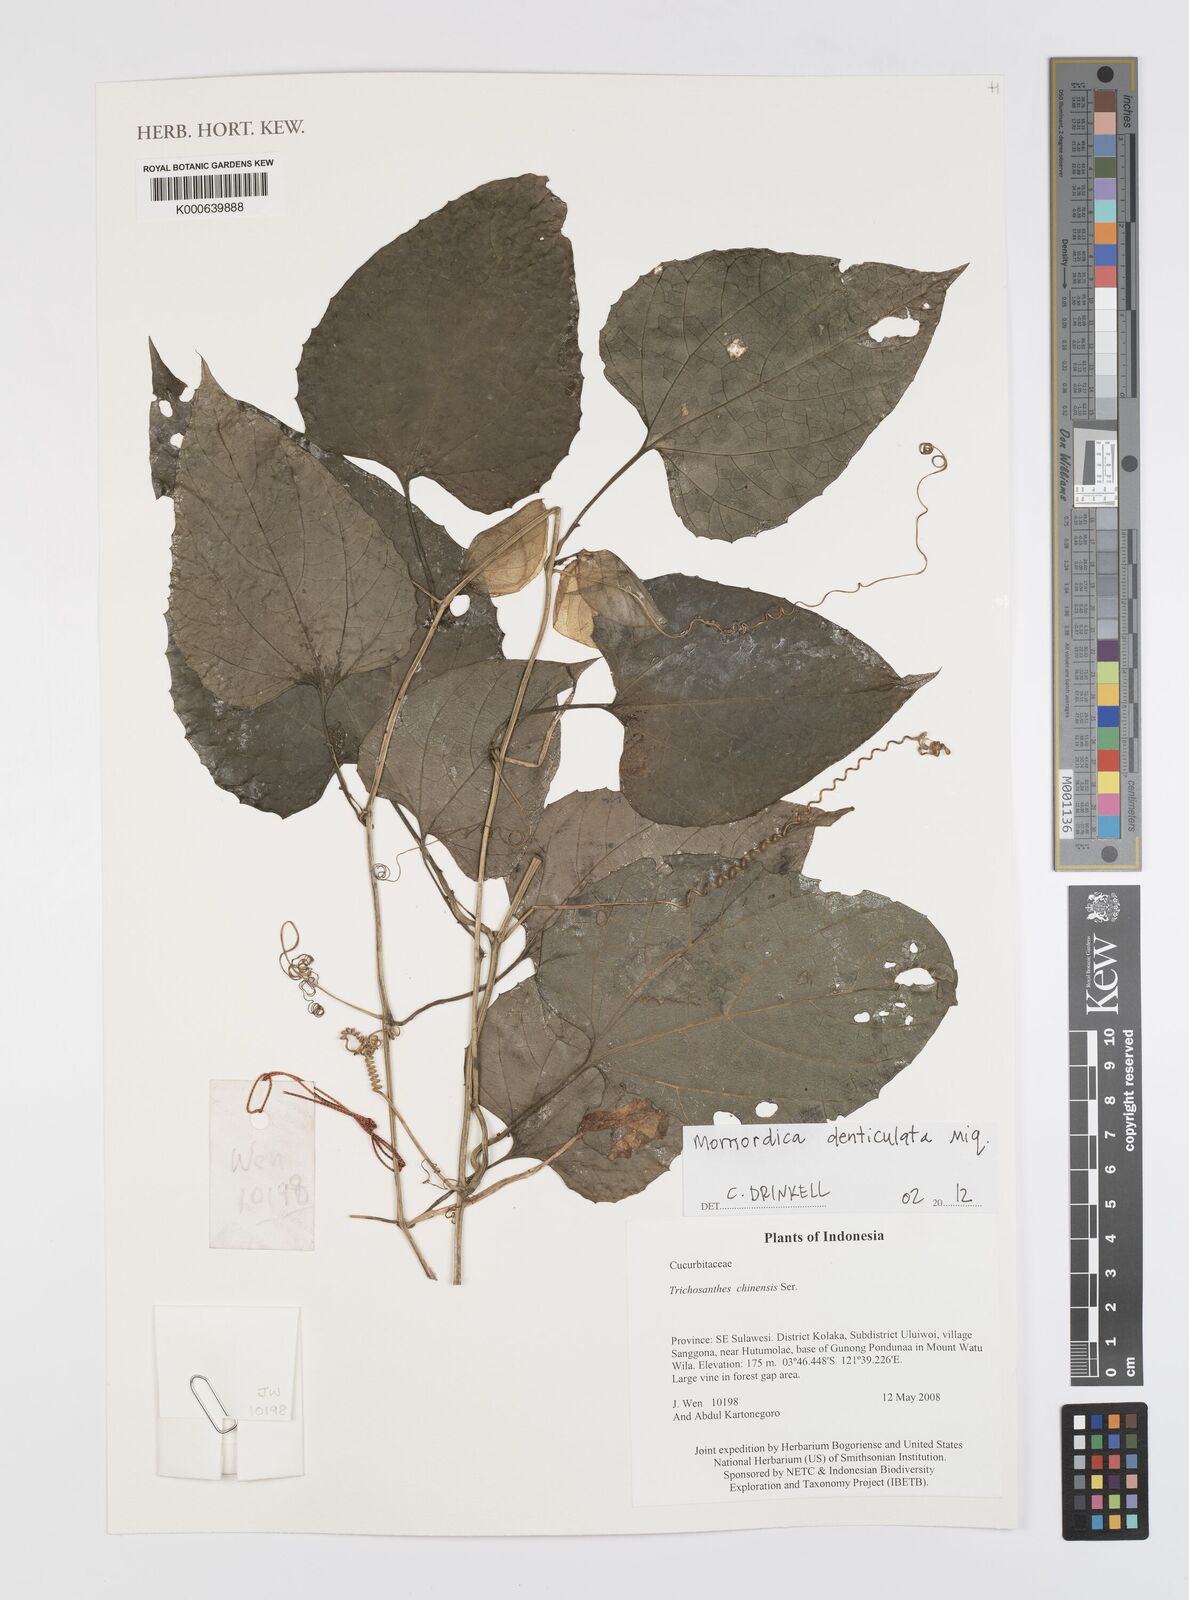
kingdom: Plantae
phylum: Tracheophyta
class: Magnoliopsida
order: Cucurbitales
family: Cucurbitaceae
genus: Momordica
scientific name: Momordica denticulata
